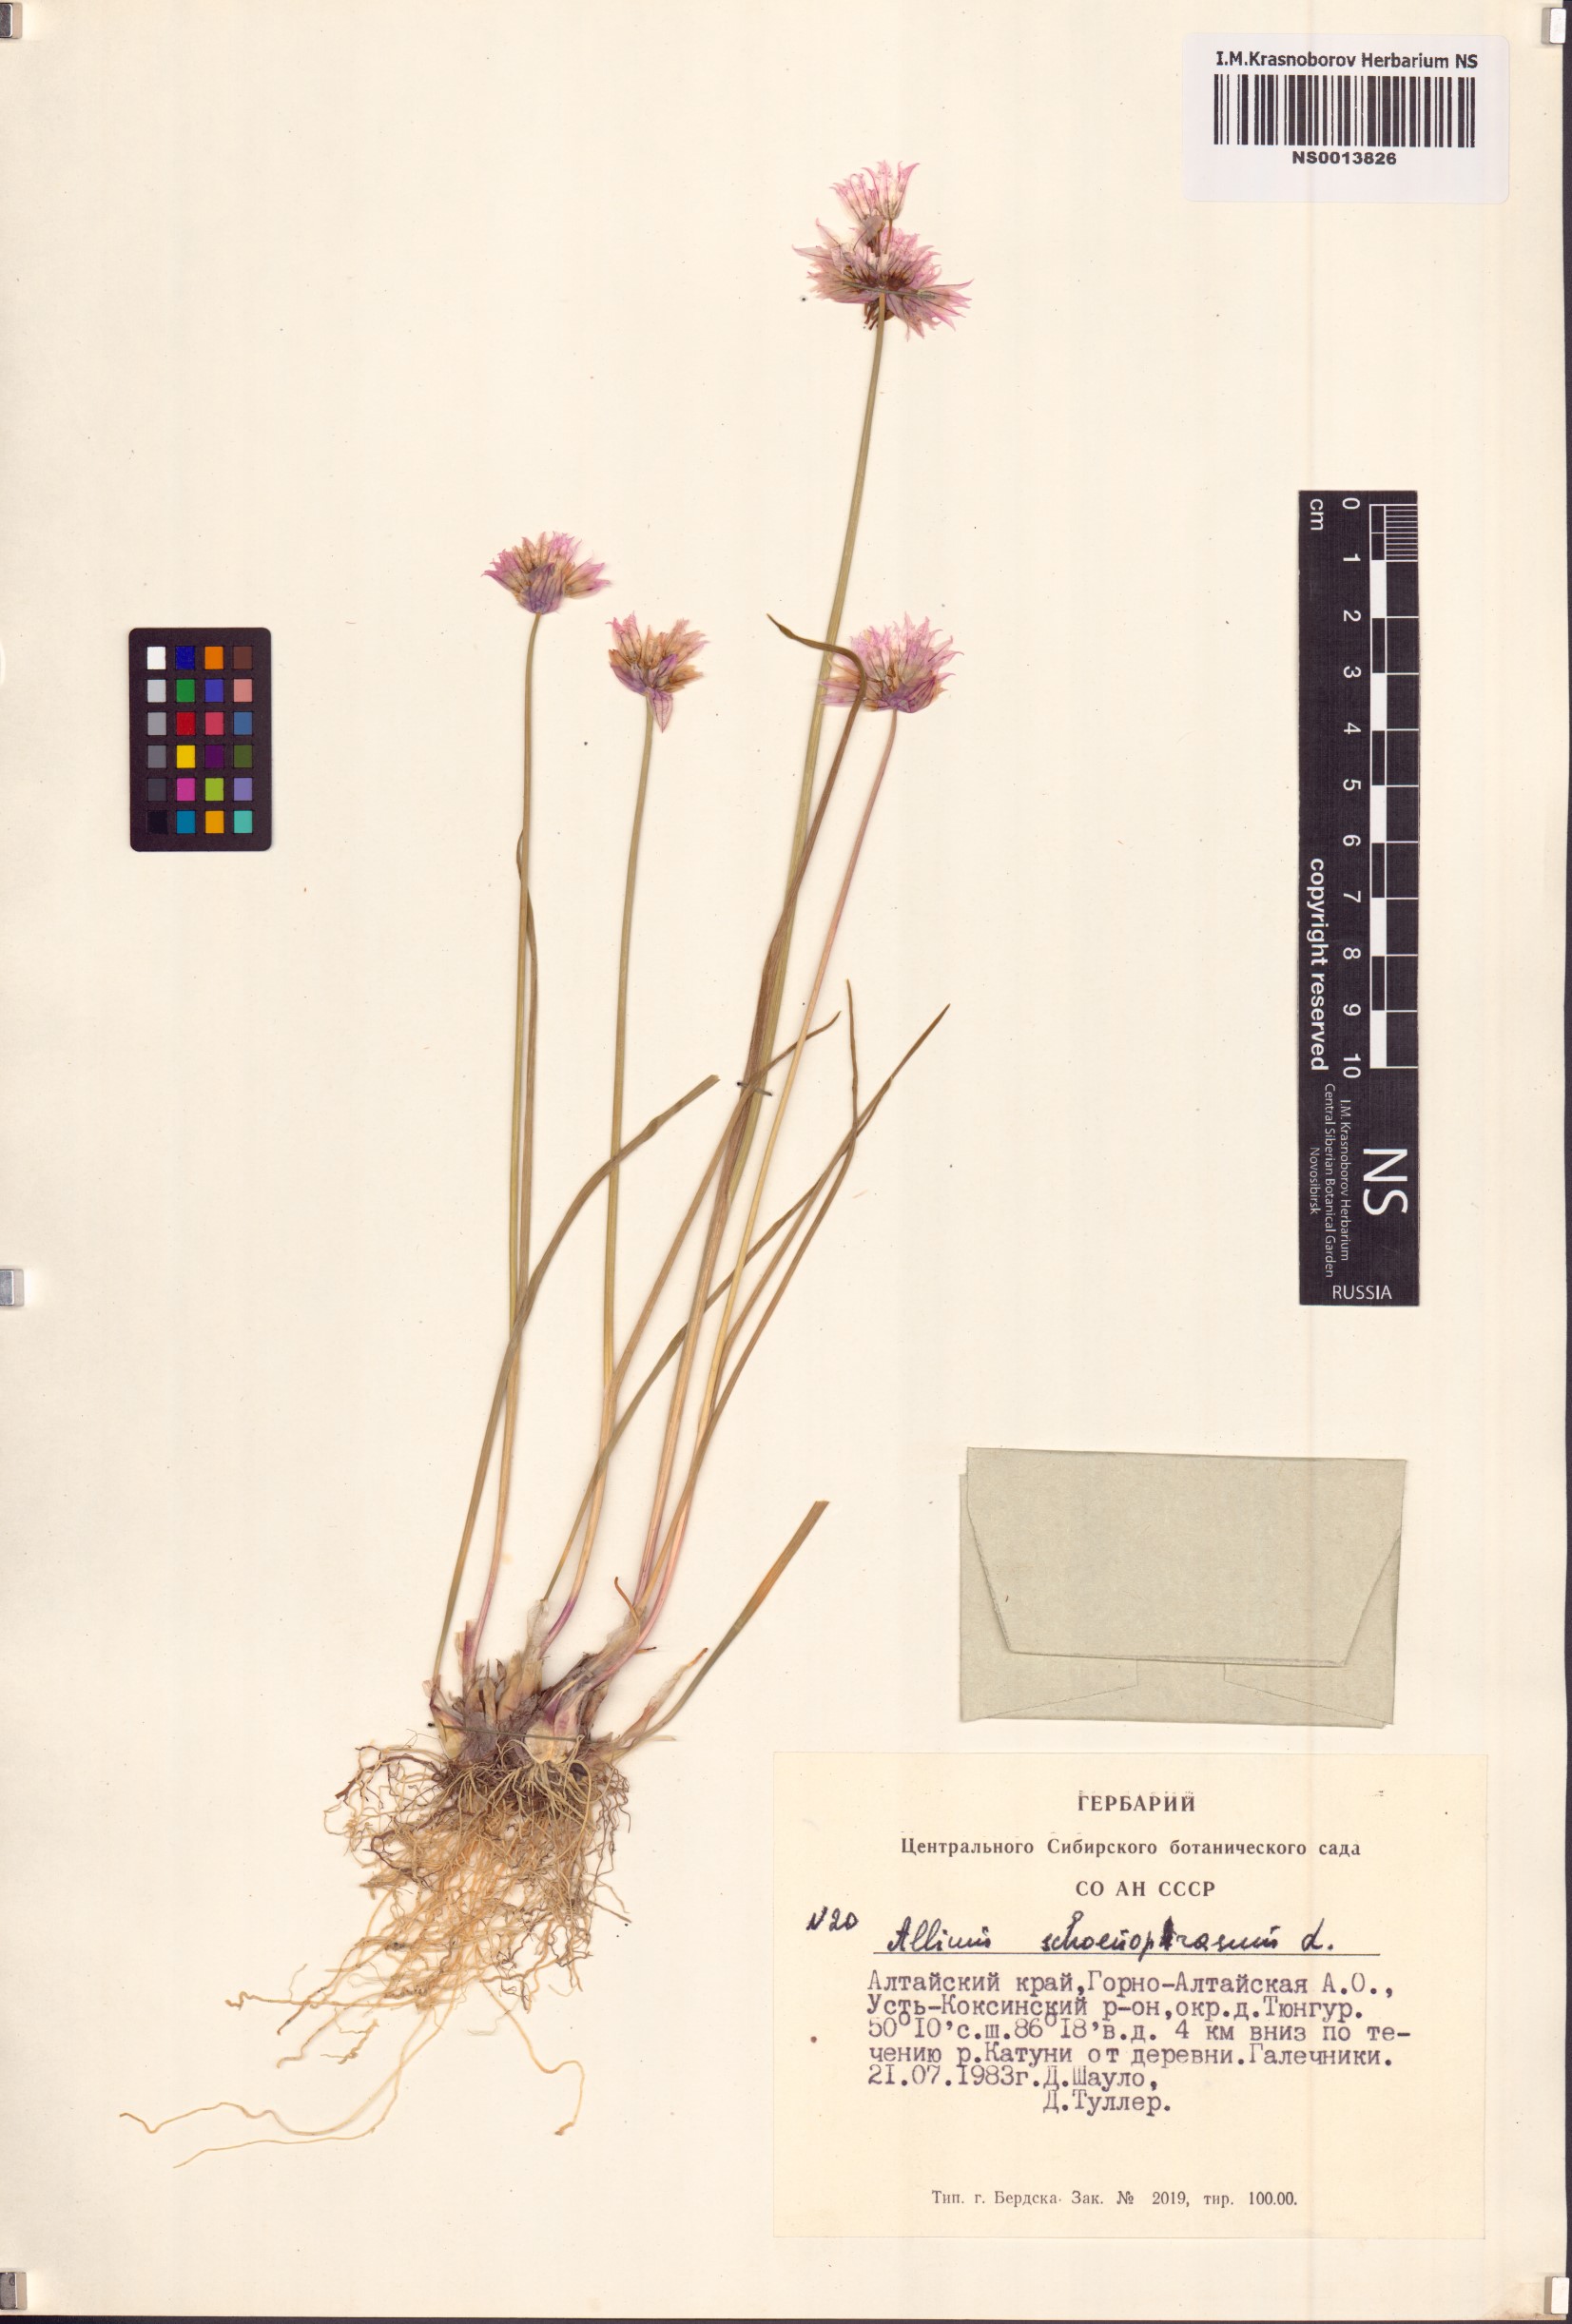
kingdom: Plantae
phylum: Tracheophyta
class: Liliopsida
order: Asparagales
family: Amaryllidaceae
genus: Allium
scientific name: Allium schoenoprasum
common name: Chives
